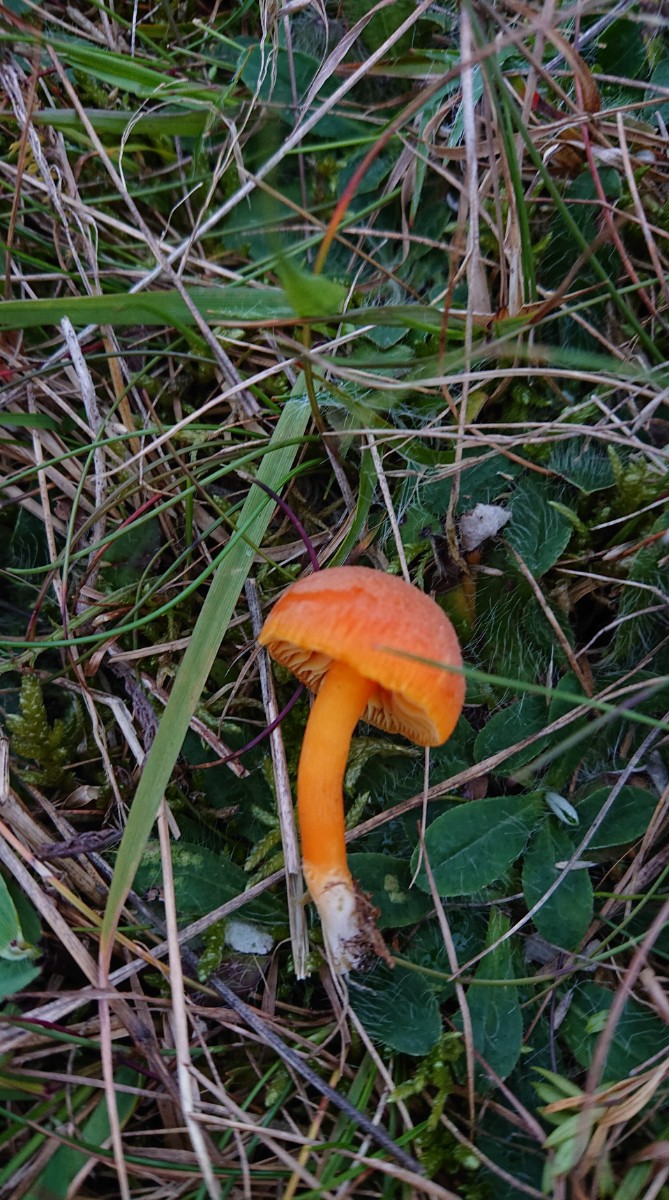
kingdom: Fungi
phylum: Basidiomycota
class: Agaricomycetes
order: Agaricales
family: Hygrophoraceae
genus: Hygrocybe
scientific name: Hygrocybe miniata
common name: mønje-vokshat
